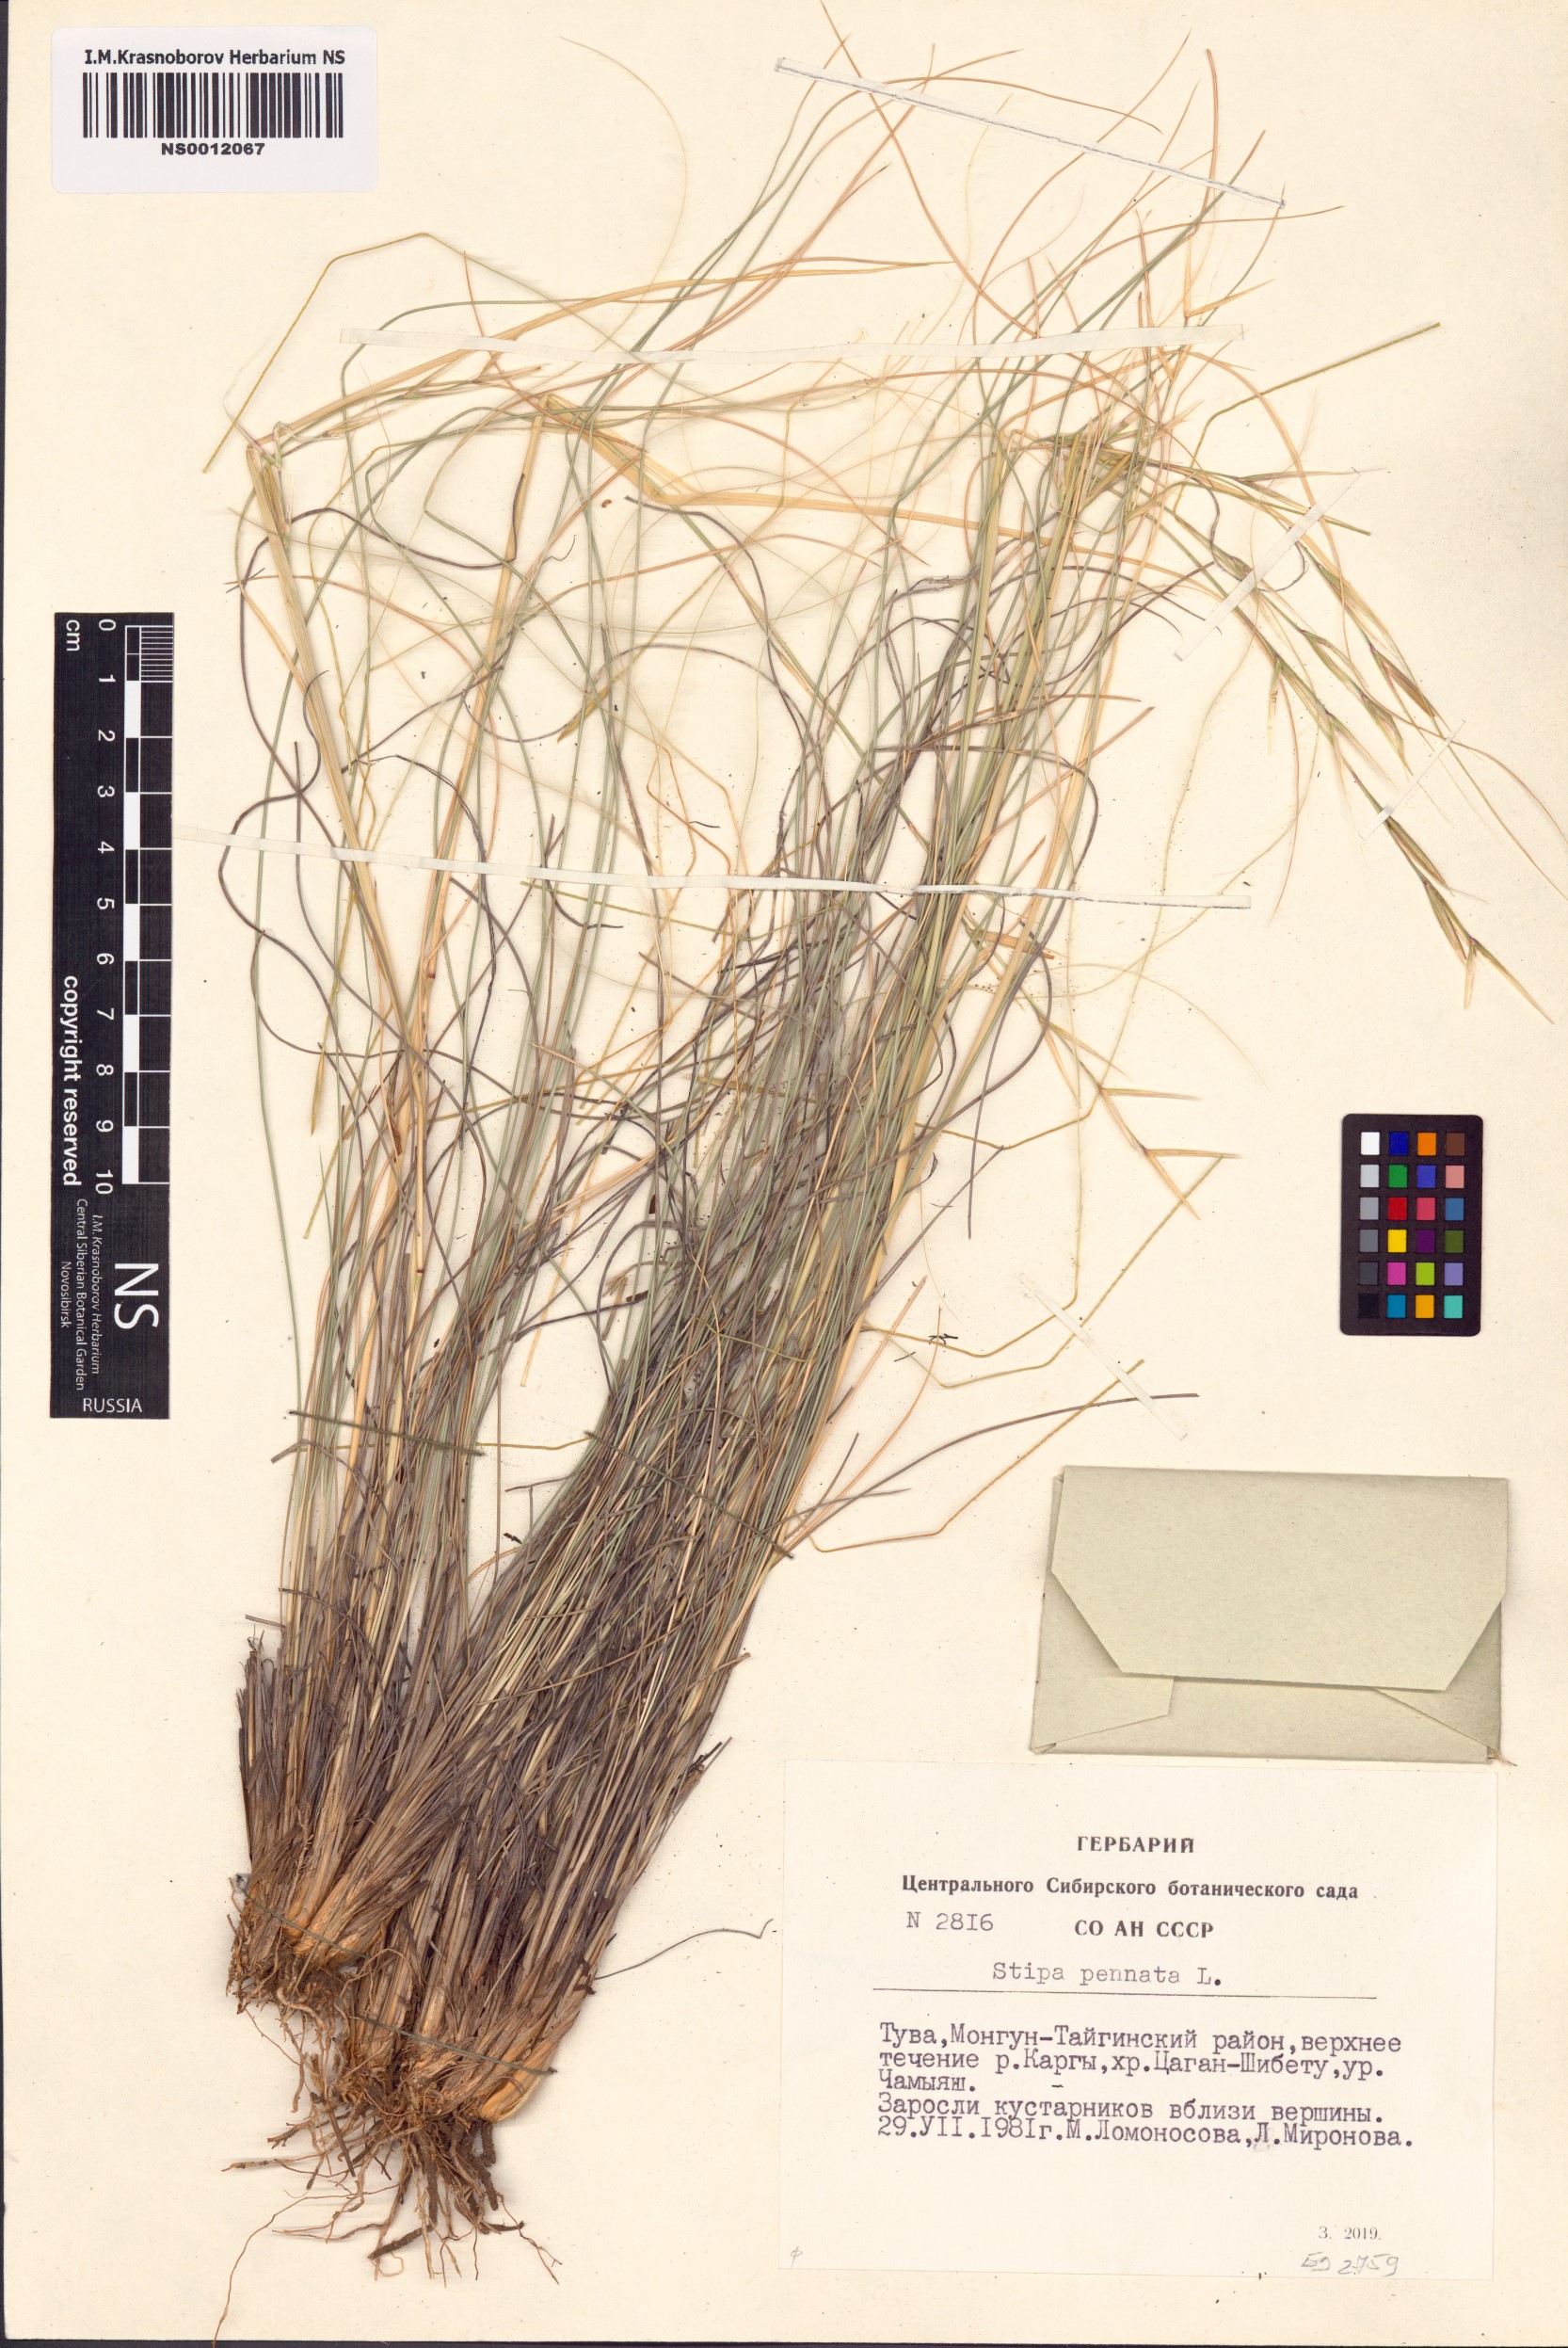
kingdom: Plantae
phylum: Tracheophyta
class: Liliopsida
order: Poales
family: Poaceae
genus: Stipa
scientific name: Stipa pennata
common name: European feather grass
